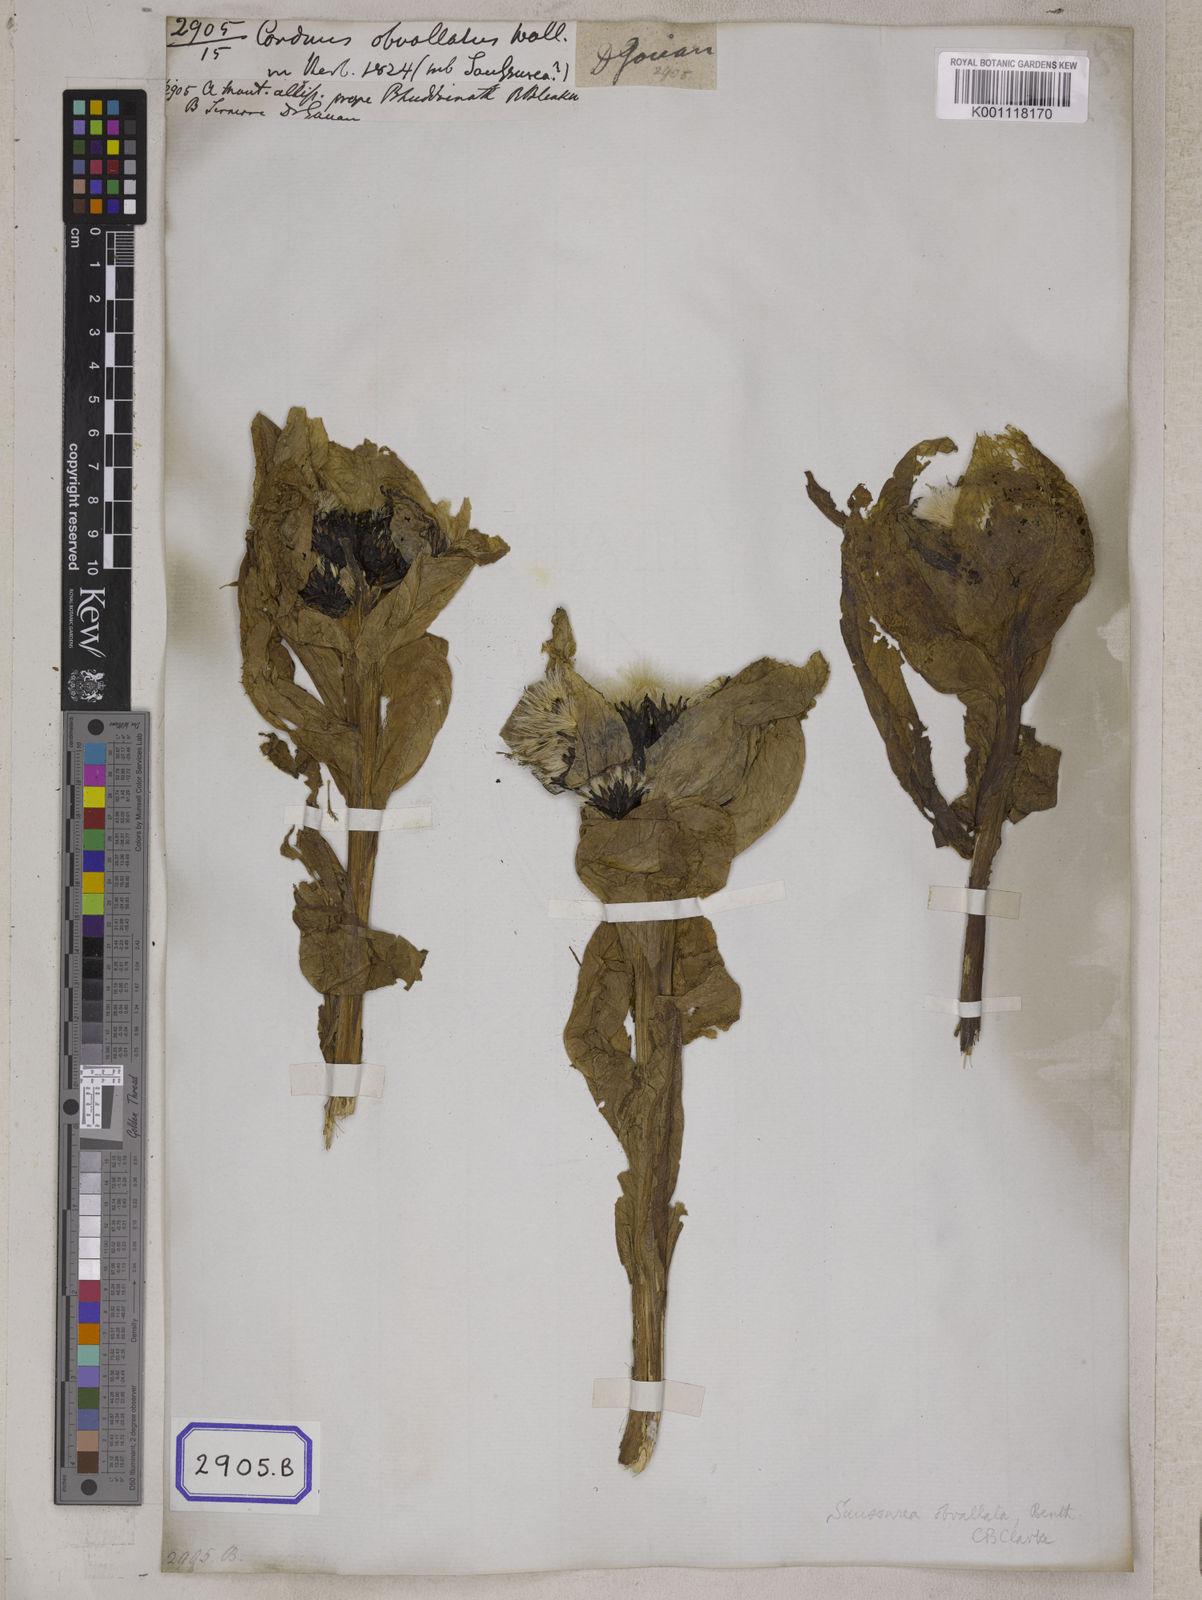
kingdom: Plantae
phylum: Tracheophyta
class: Magnoliopsida
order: Asterales
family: Asteraceae
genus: Carduus
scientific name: Carduus
